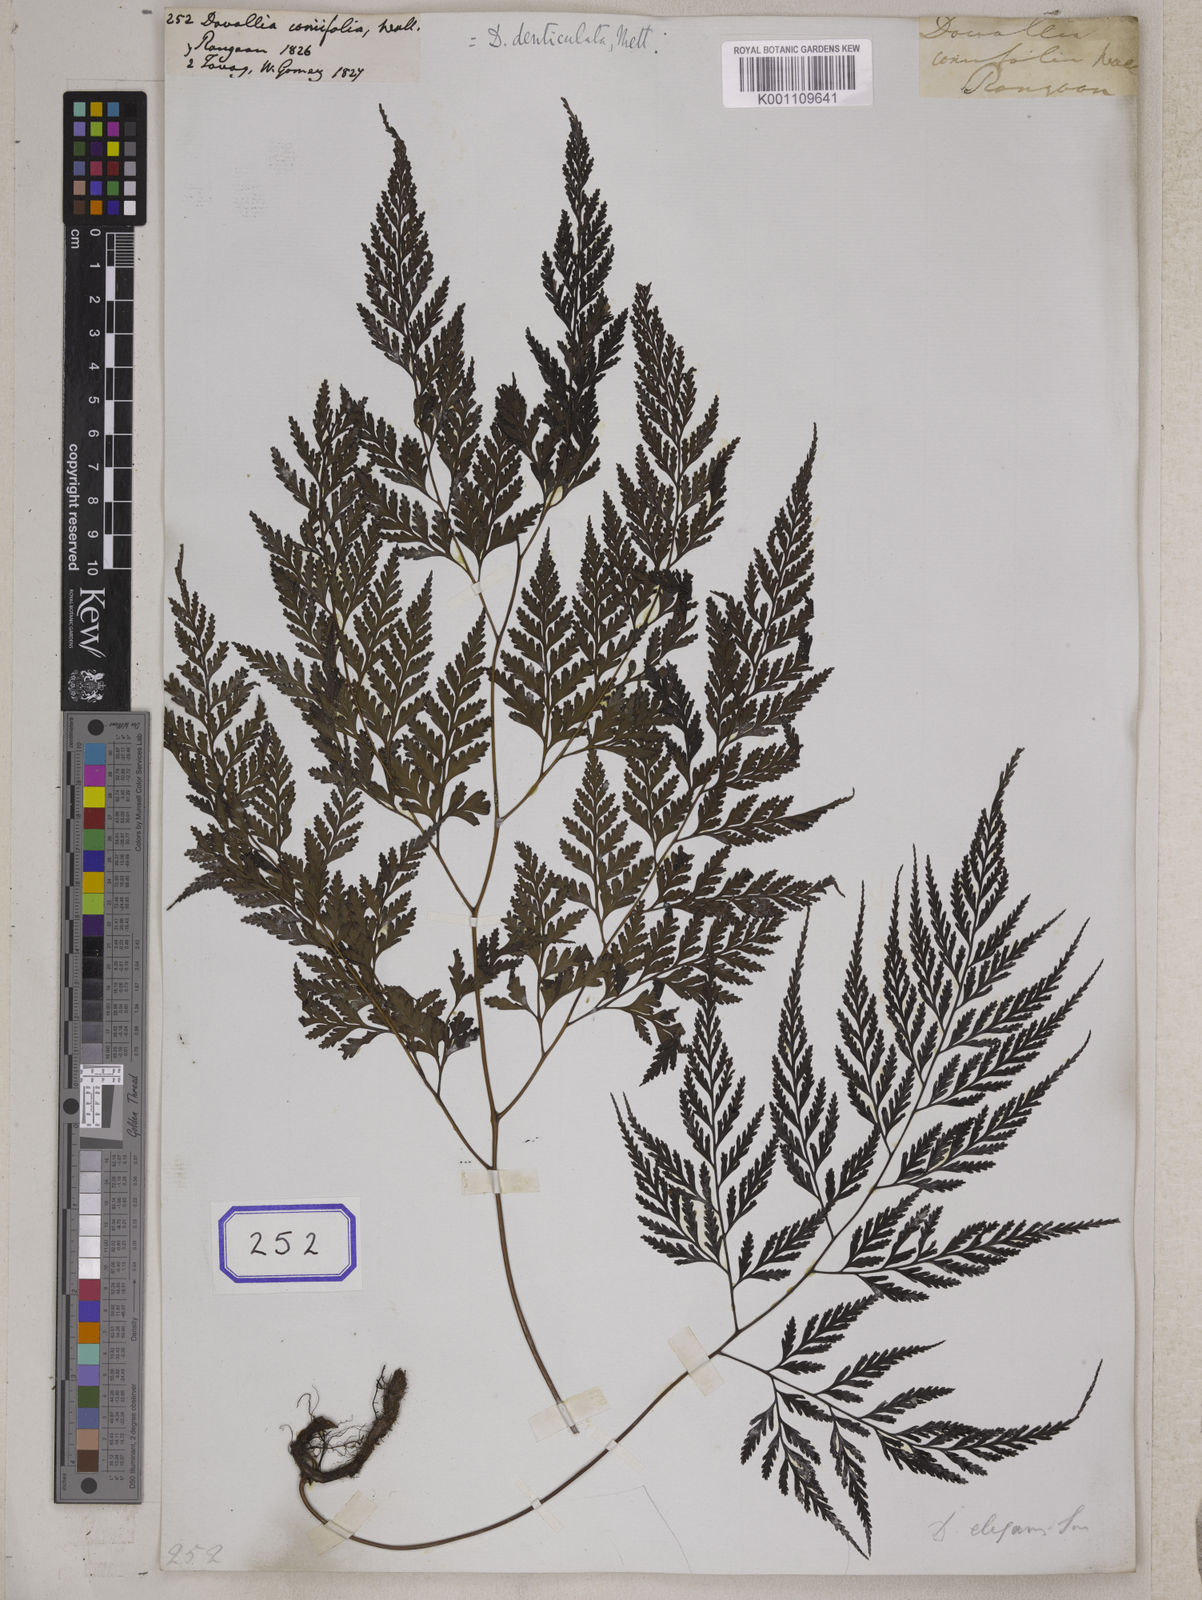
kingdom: Plantae
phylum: Tracheophyta
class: Polypodiopsida
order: Polypodiales
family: Davalliaceae
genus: Davallia
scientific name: Davallia denticulata
